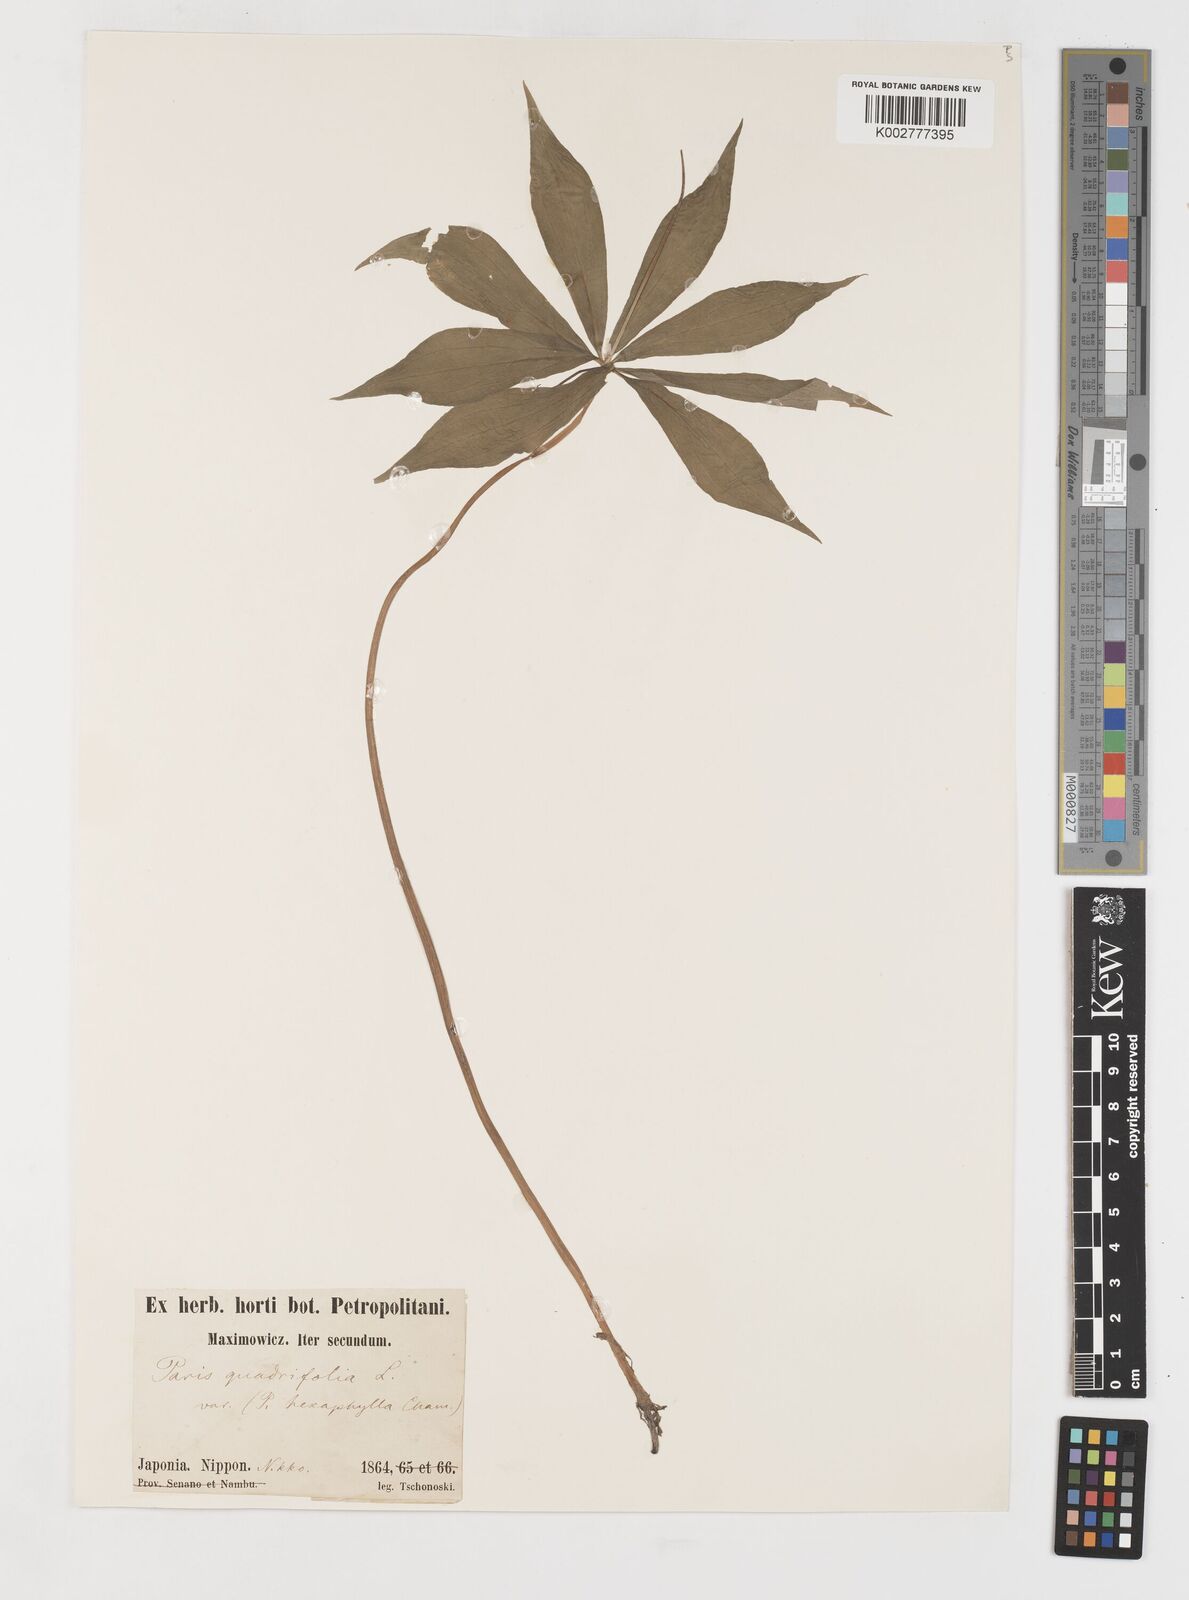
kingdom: Plantae
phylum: Tracheophyta
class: Liliopsida
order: Liliales
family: Melanthiaceae
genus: Paris
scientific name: Paris quadrifolia
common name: Herb-paris
